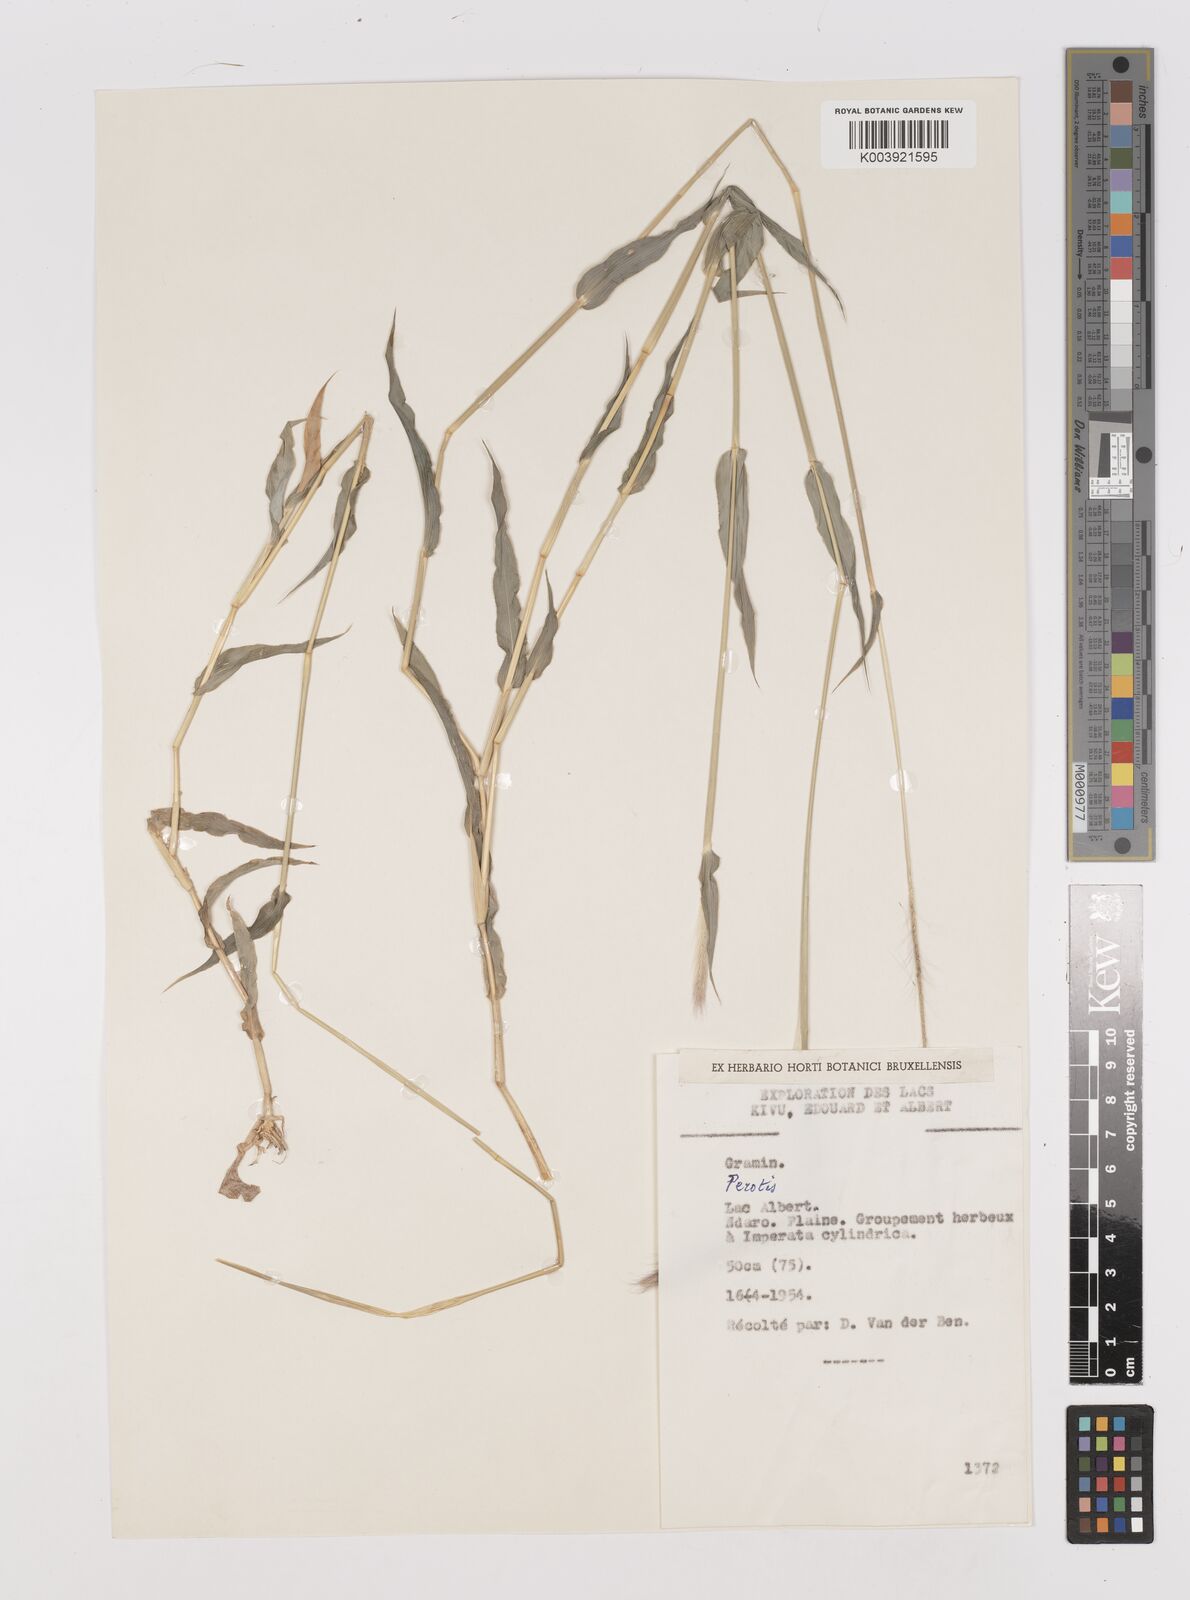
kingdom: Plantae
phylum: Tracheophyta
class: Liliopsida
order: Poales
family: Poaceae
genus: Perotis
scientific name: Perotis patens
